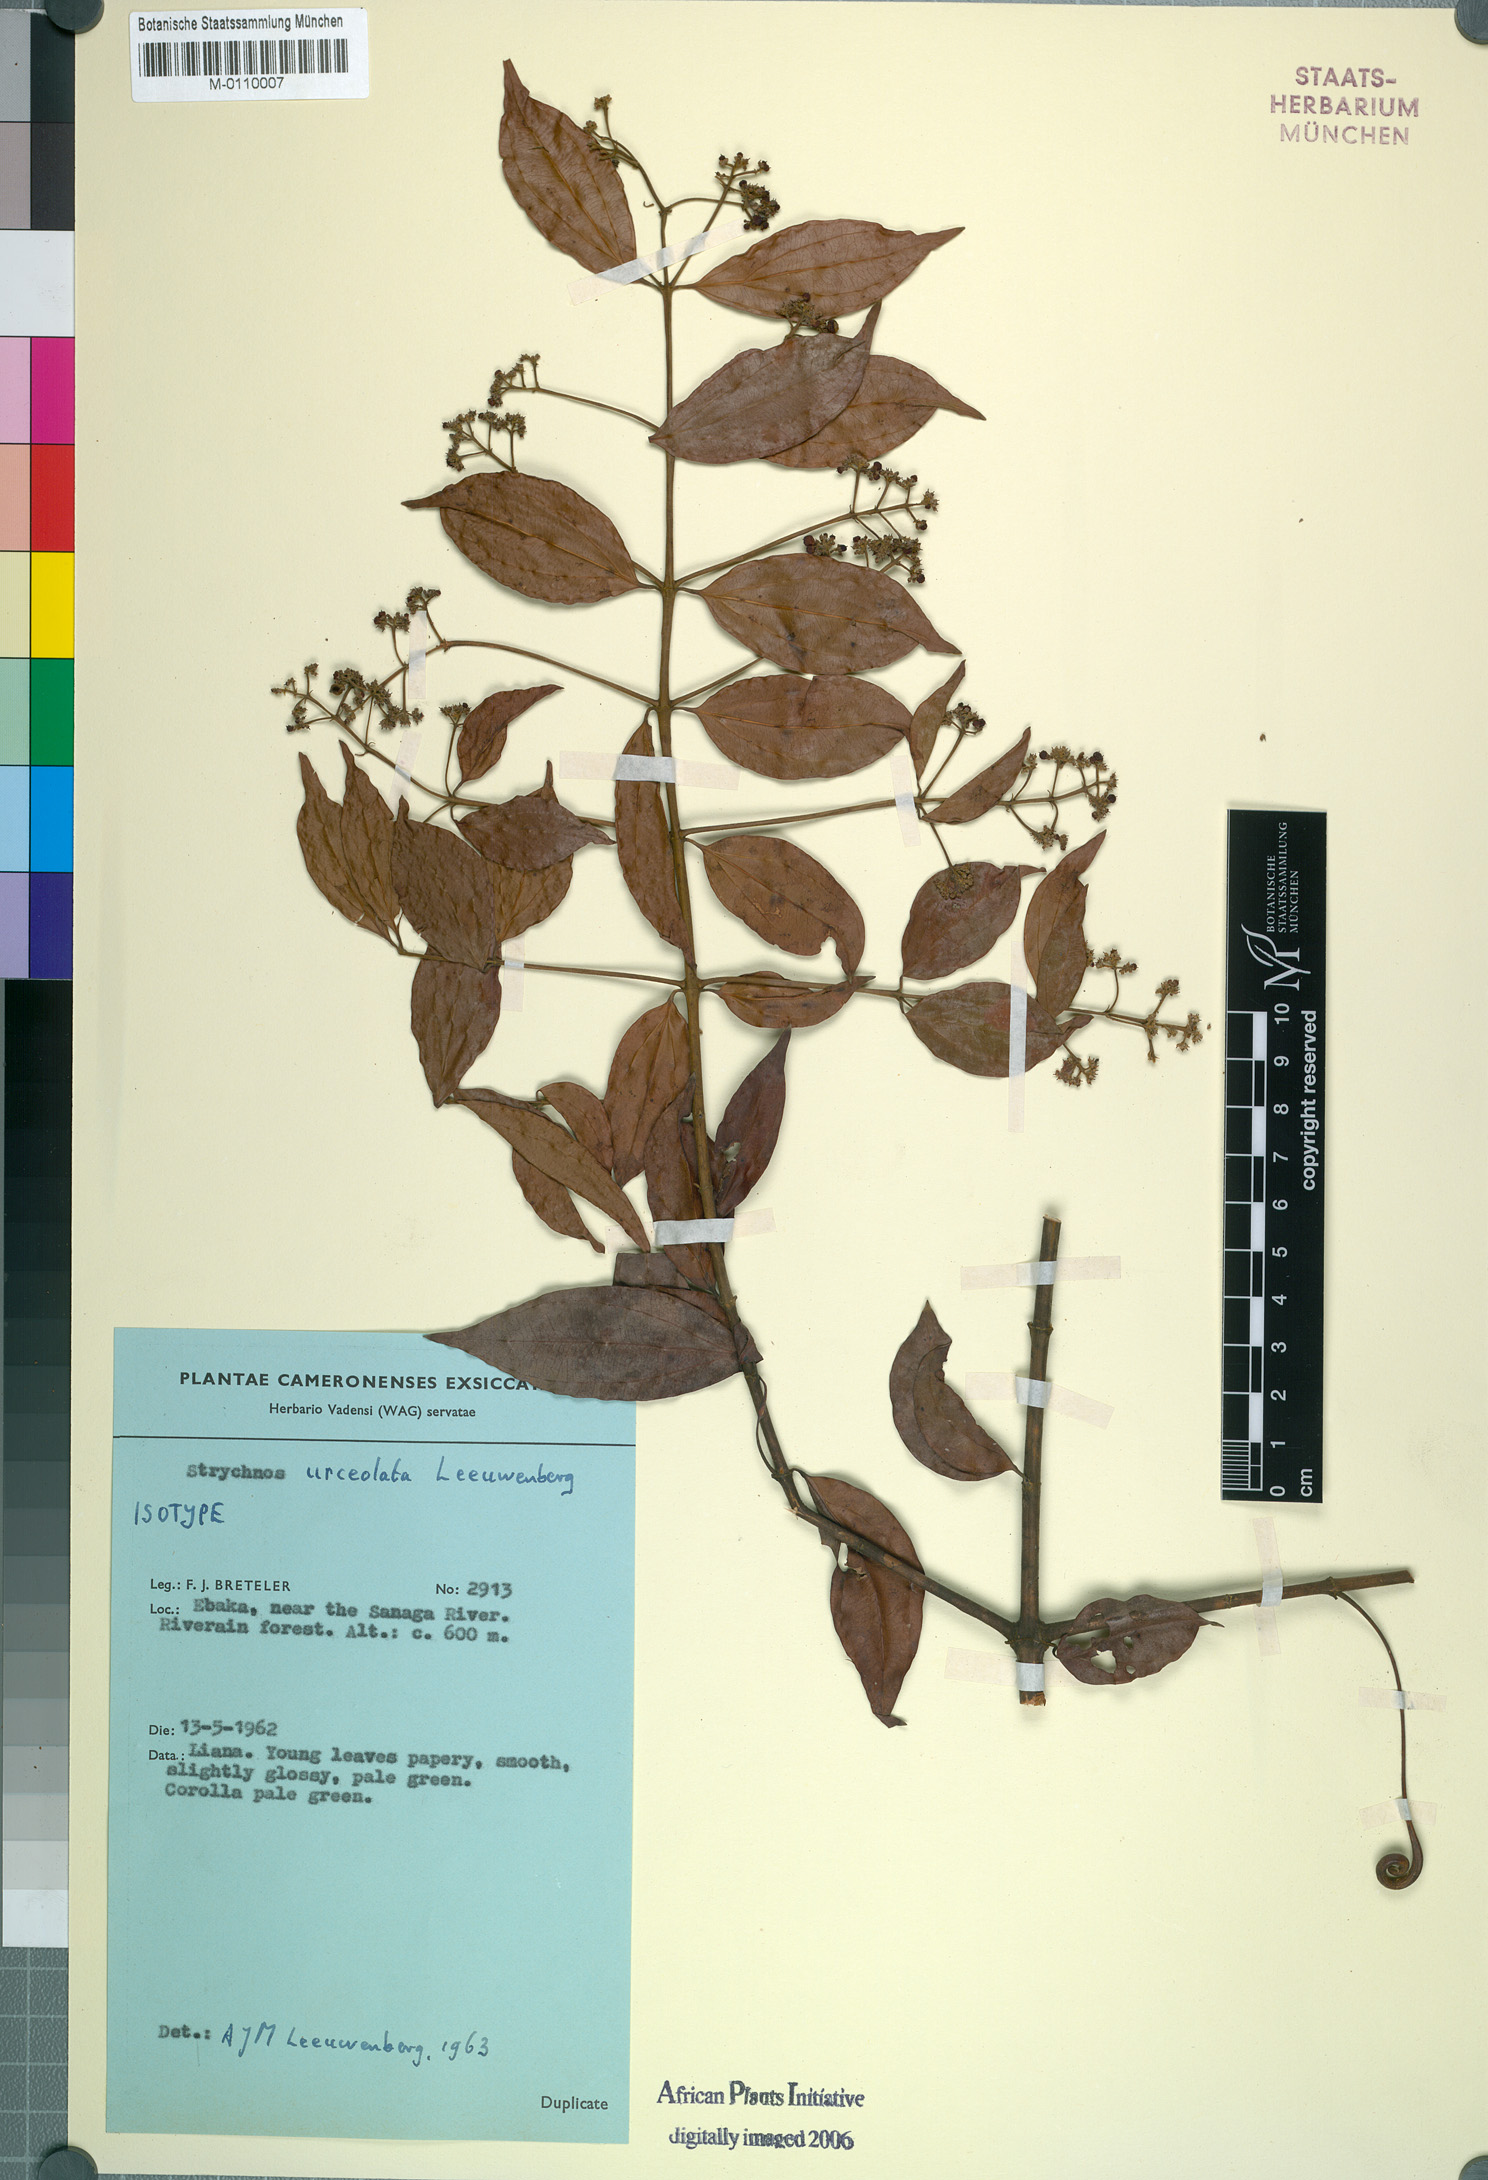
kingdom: Plantae
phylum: Tracheophyta
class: Magnoliopsida
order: Gentianales
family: Loganiaceae
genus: Strychnos
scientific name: Strychnos urceolata
